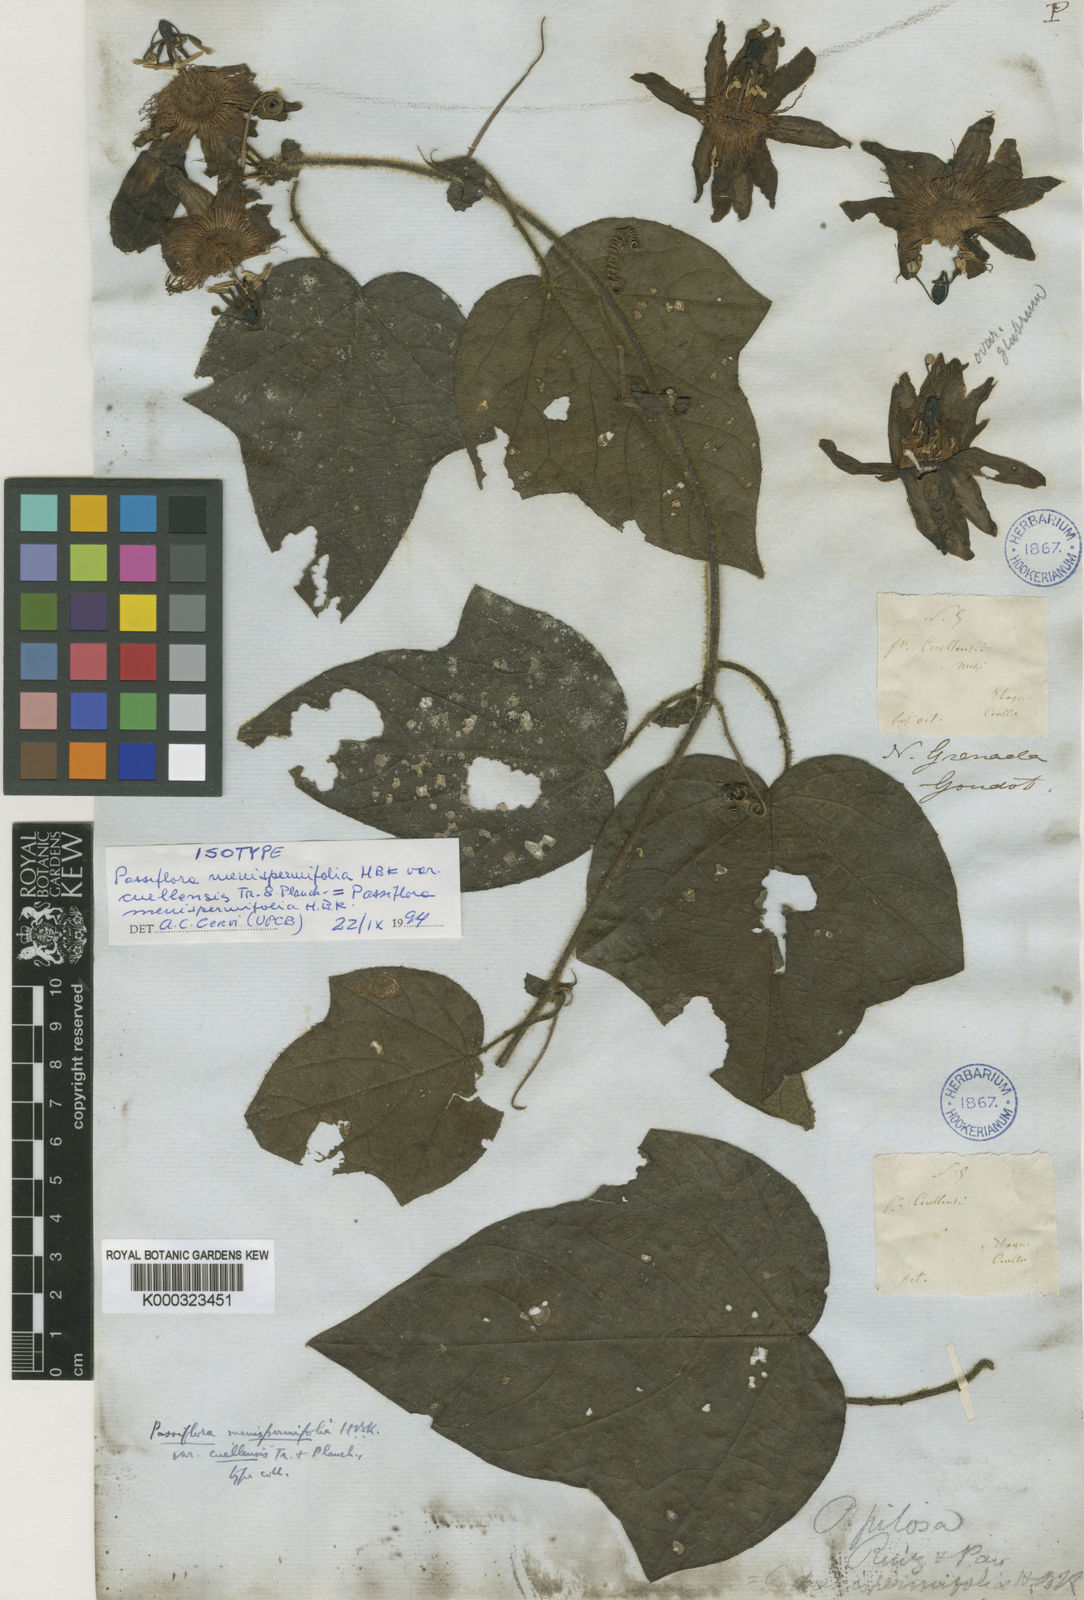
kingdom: Plantae
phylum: Tracheophyta
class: Magnoliopsida
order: Malpighiales
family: Passifloraceae
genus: Passiflora
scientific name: Passiflora menispermacea
